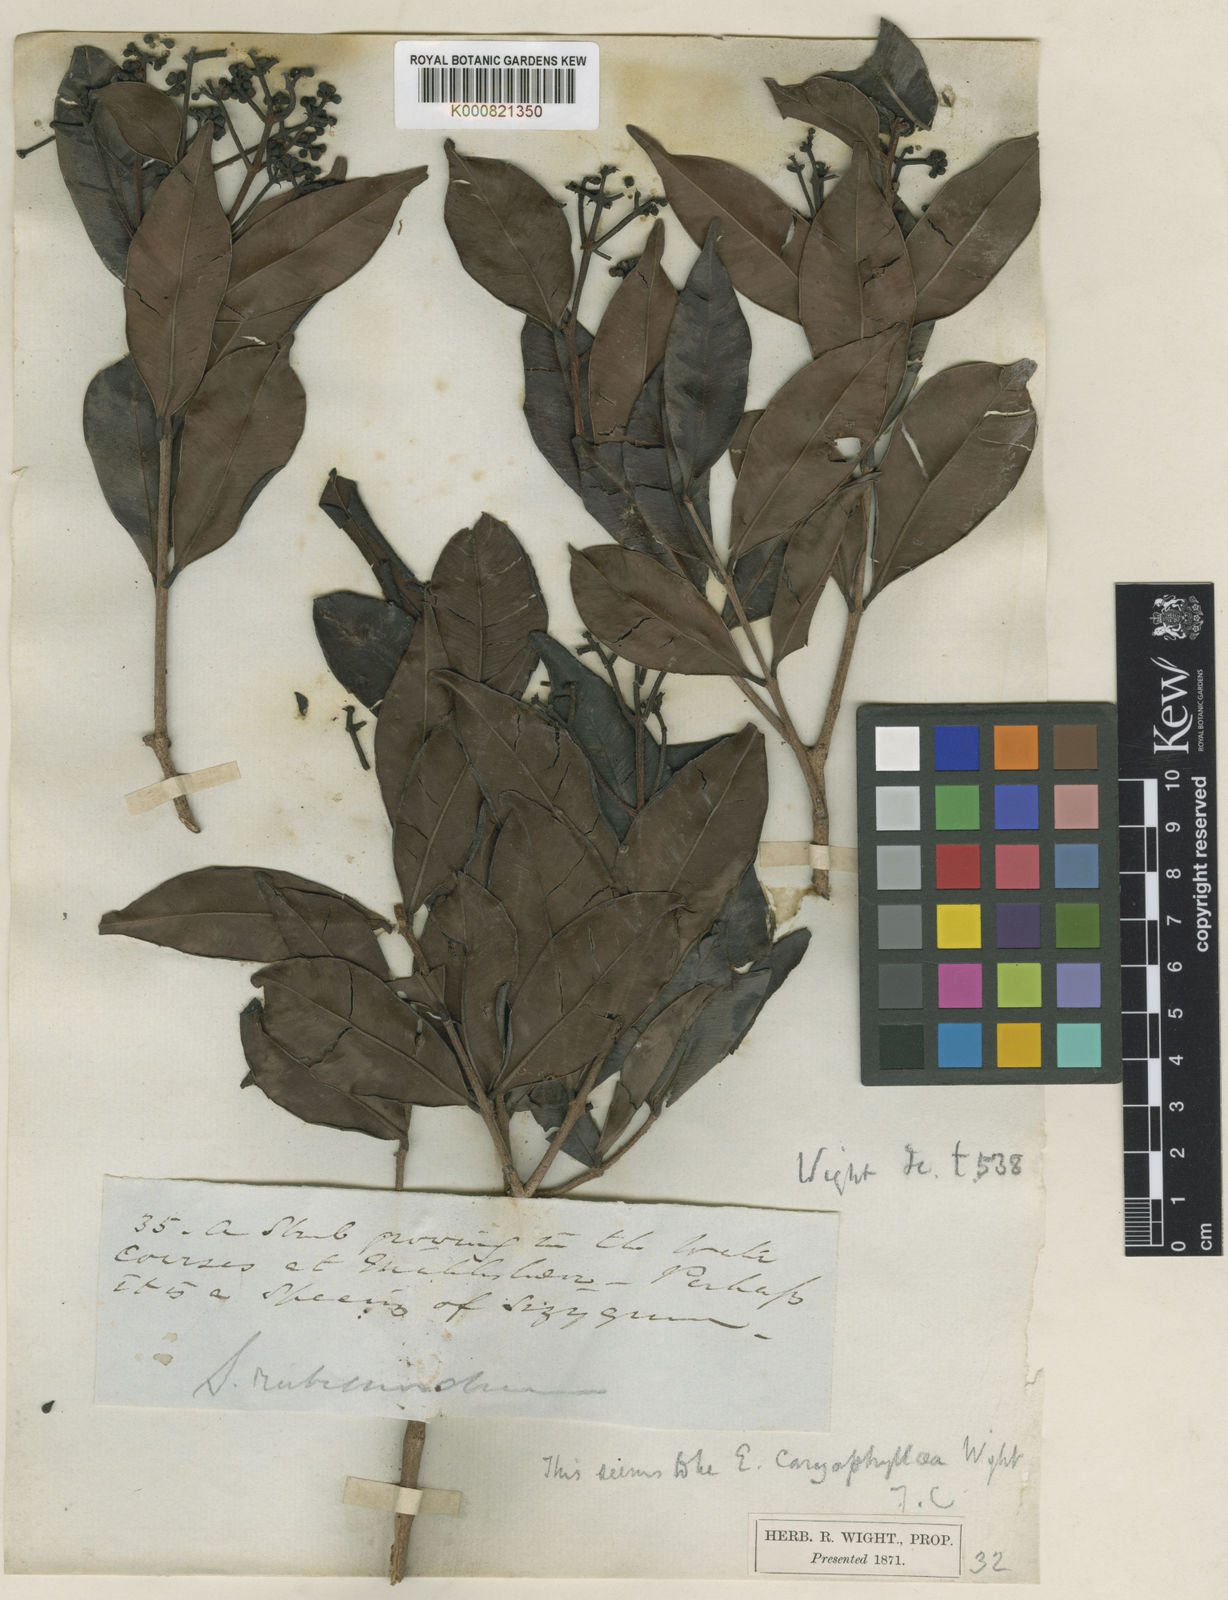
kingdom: Plantae
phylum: Tracheophyta
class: Magnoliopsida
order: Myrtales
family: Myrtaceae
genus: Syzygium
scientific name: Syzygium rubicundum
